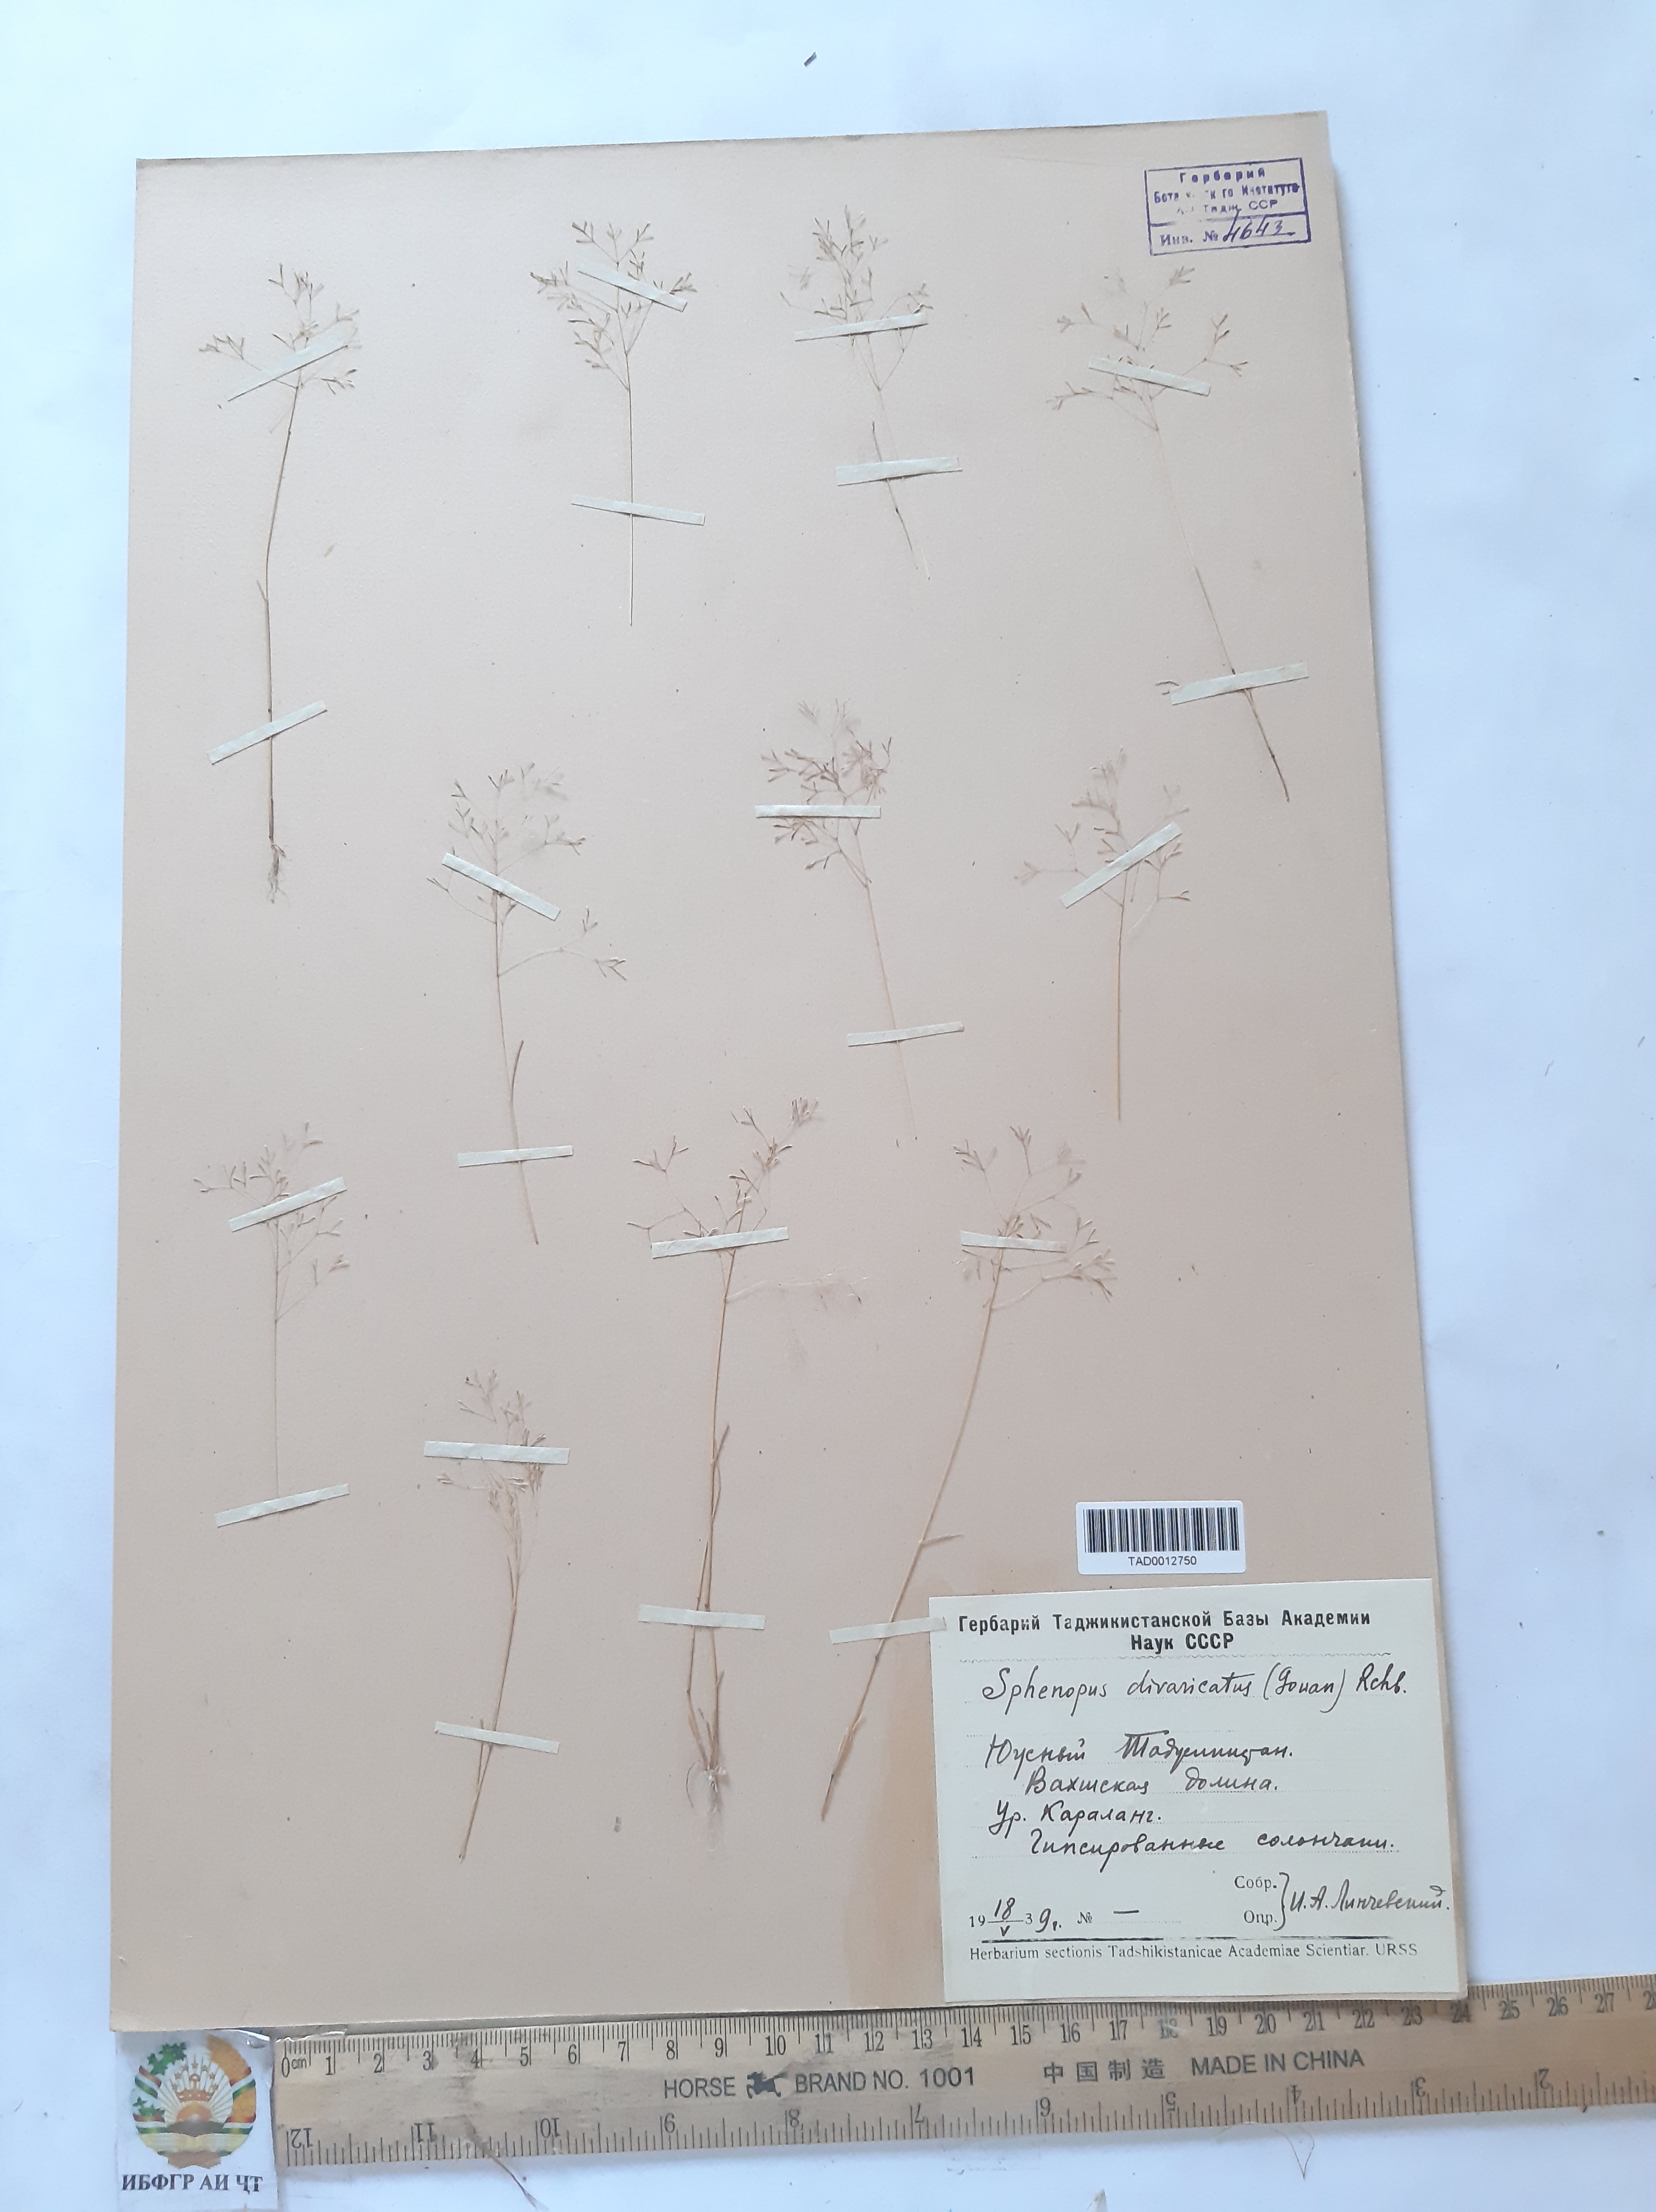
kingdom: Plantae
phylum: Tracheophyta
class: Liliopsida
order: Poales
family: Poaceae
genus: Sphenopus
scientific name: Sphenopus divaricatus
